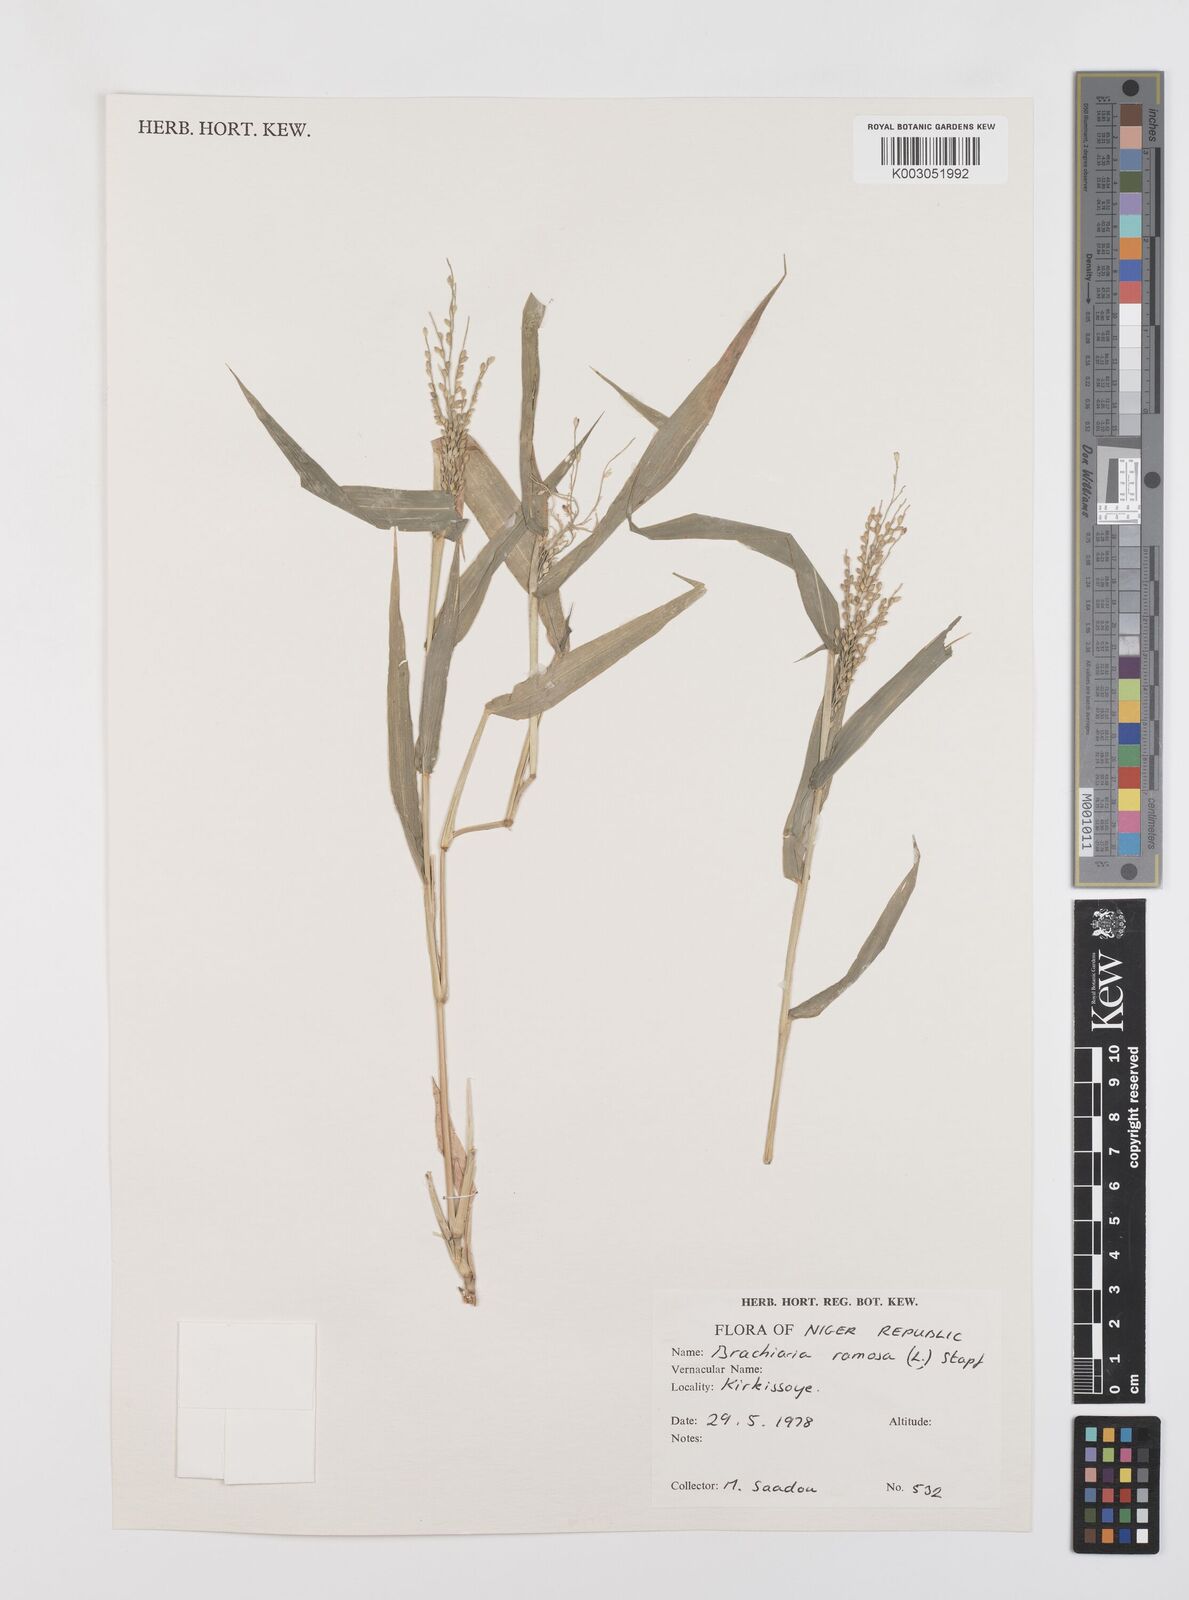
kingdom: Plantae
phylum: Tracheophyta
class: Liliopsida
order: Poales
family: Poaceae
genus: Urochloa
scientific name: Urochloa ramosa
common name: Browntop millet
